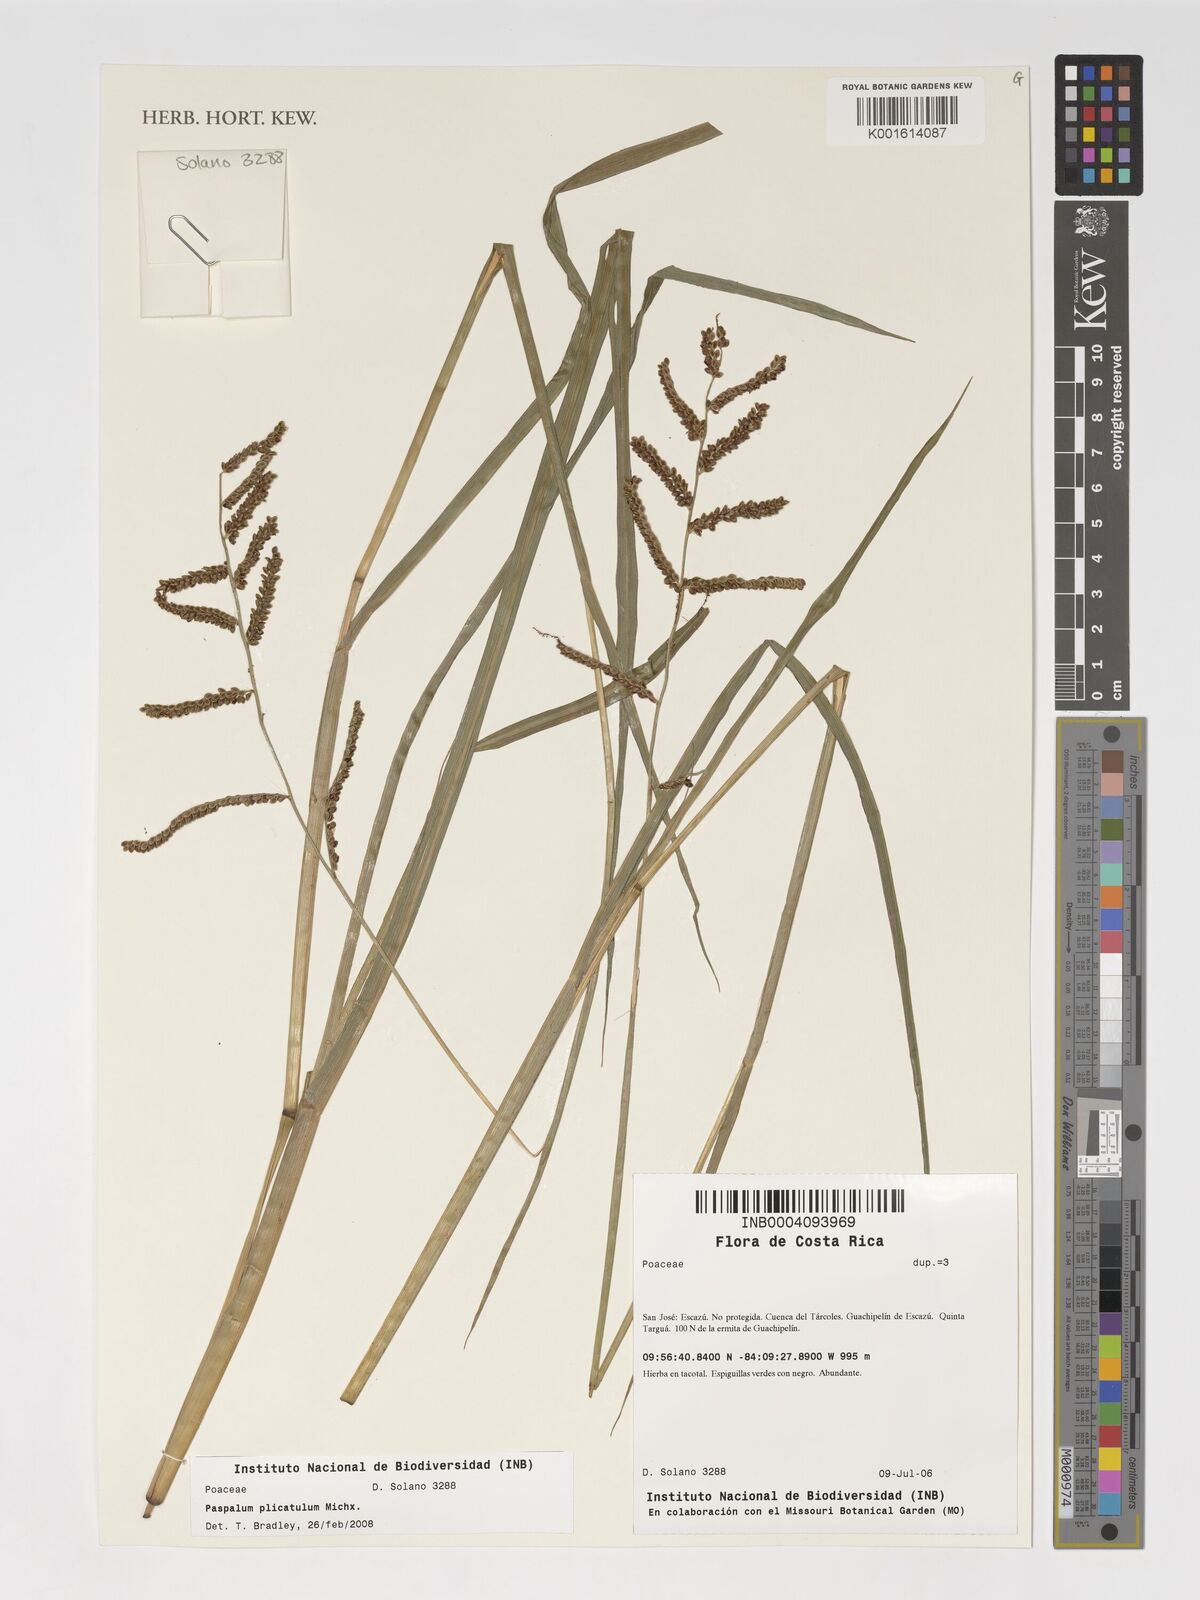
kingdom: Plantae
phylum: Tracheophyta
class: Liliopsida
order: Poales
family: Poaceae
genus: Paspalum
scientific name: Paspalum plicatulum
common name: Top paspalum
